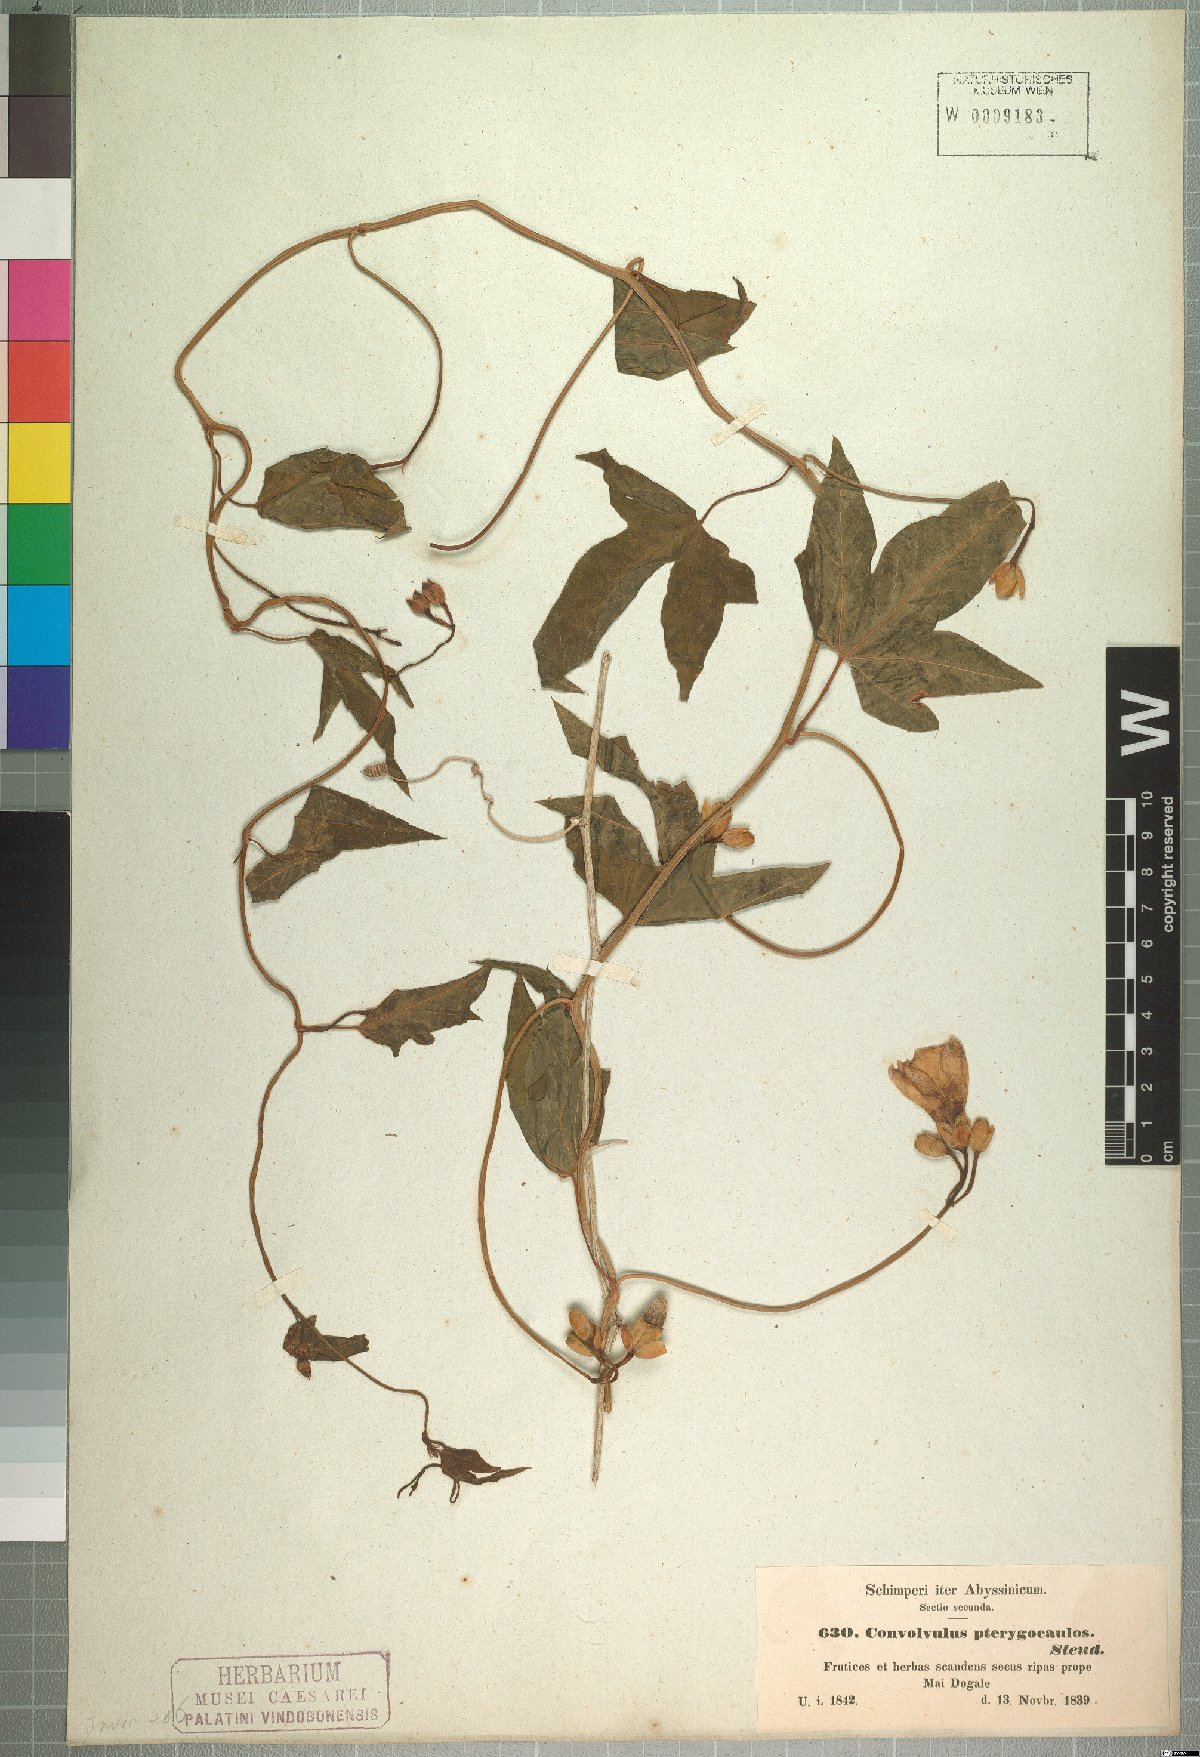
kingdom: Plantae
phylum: Tracheophyta
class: Magnoliopsida
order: Solanales
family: Convolvulaceae
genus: Merremia
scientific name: Merremia pterygocaulos
